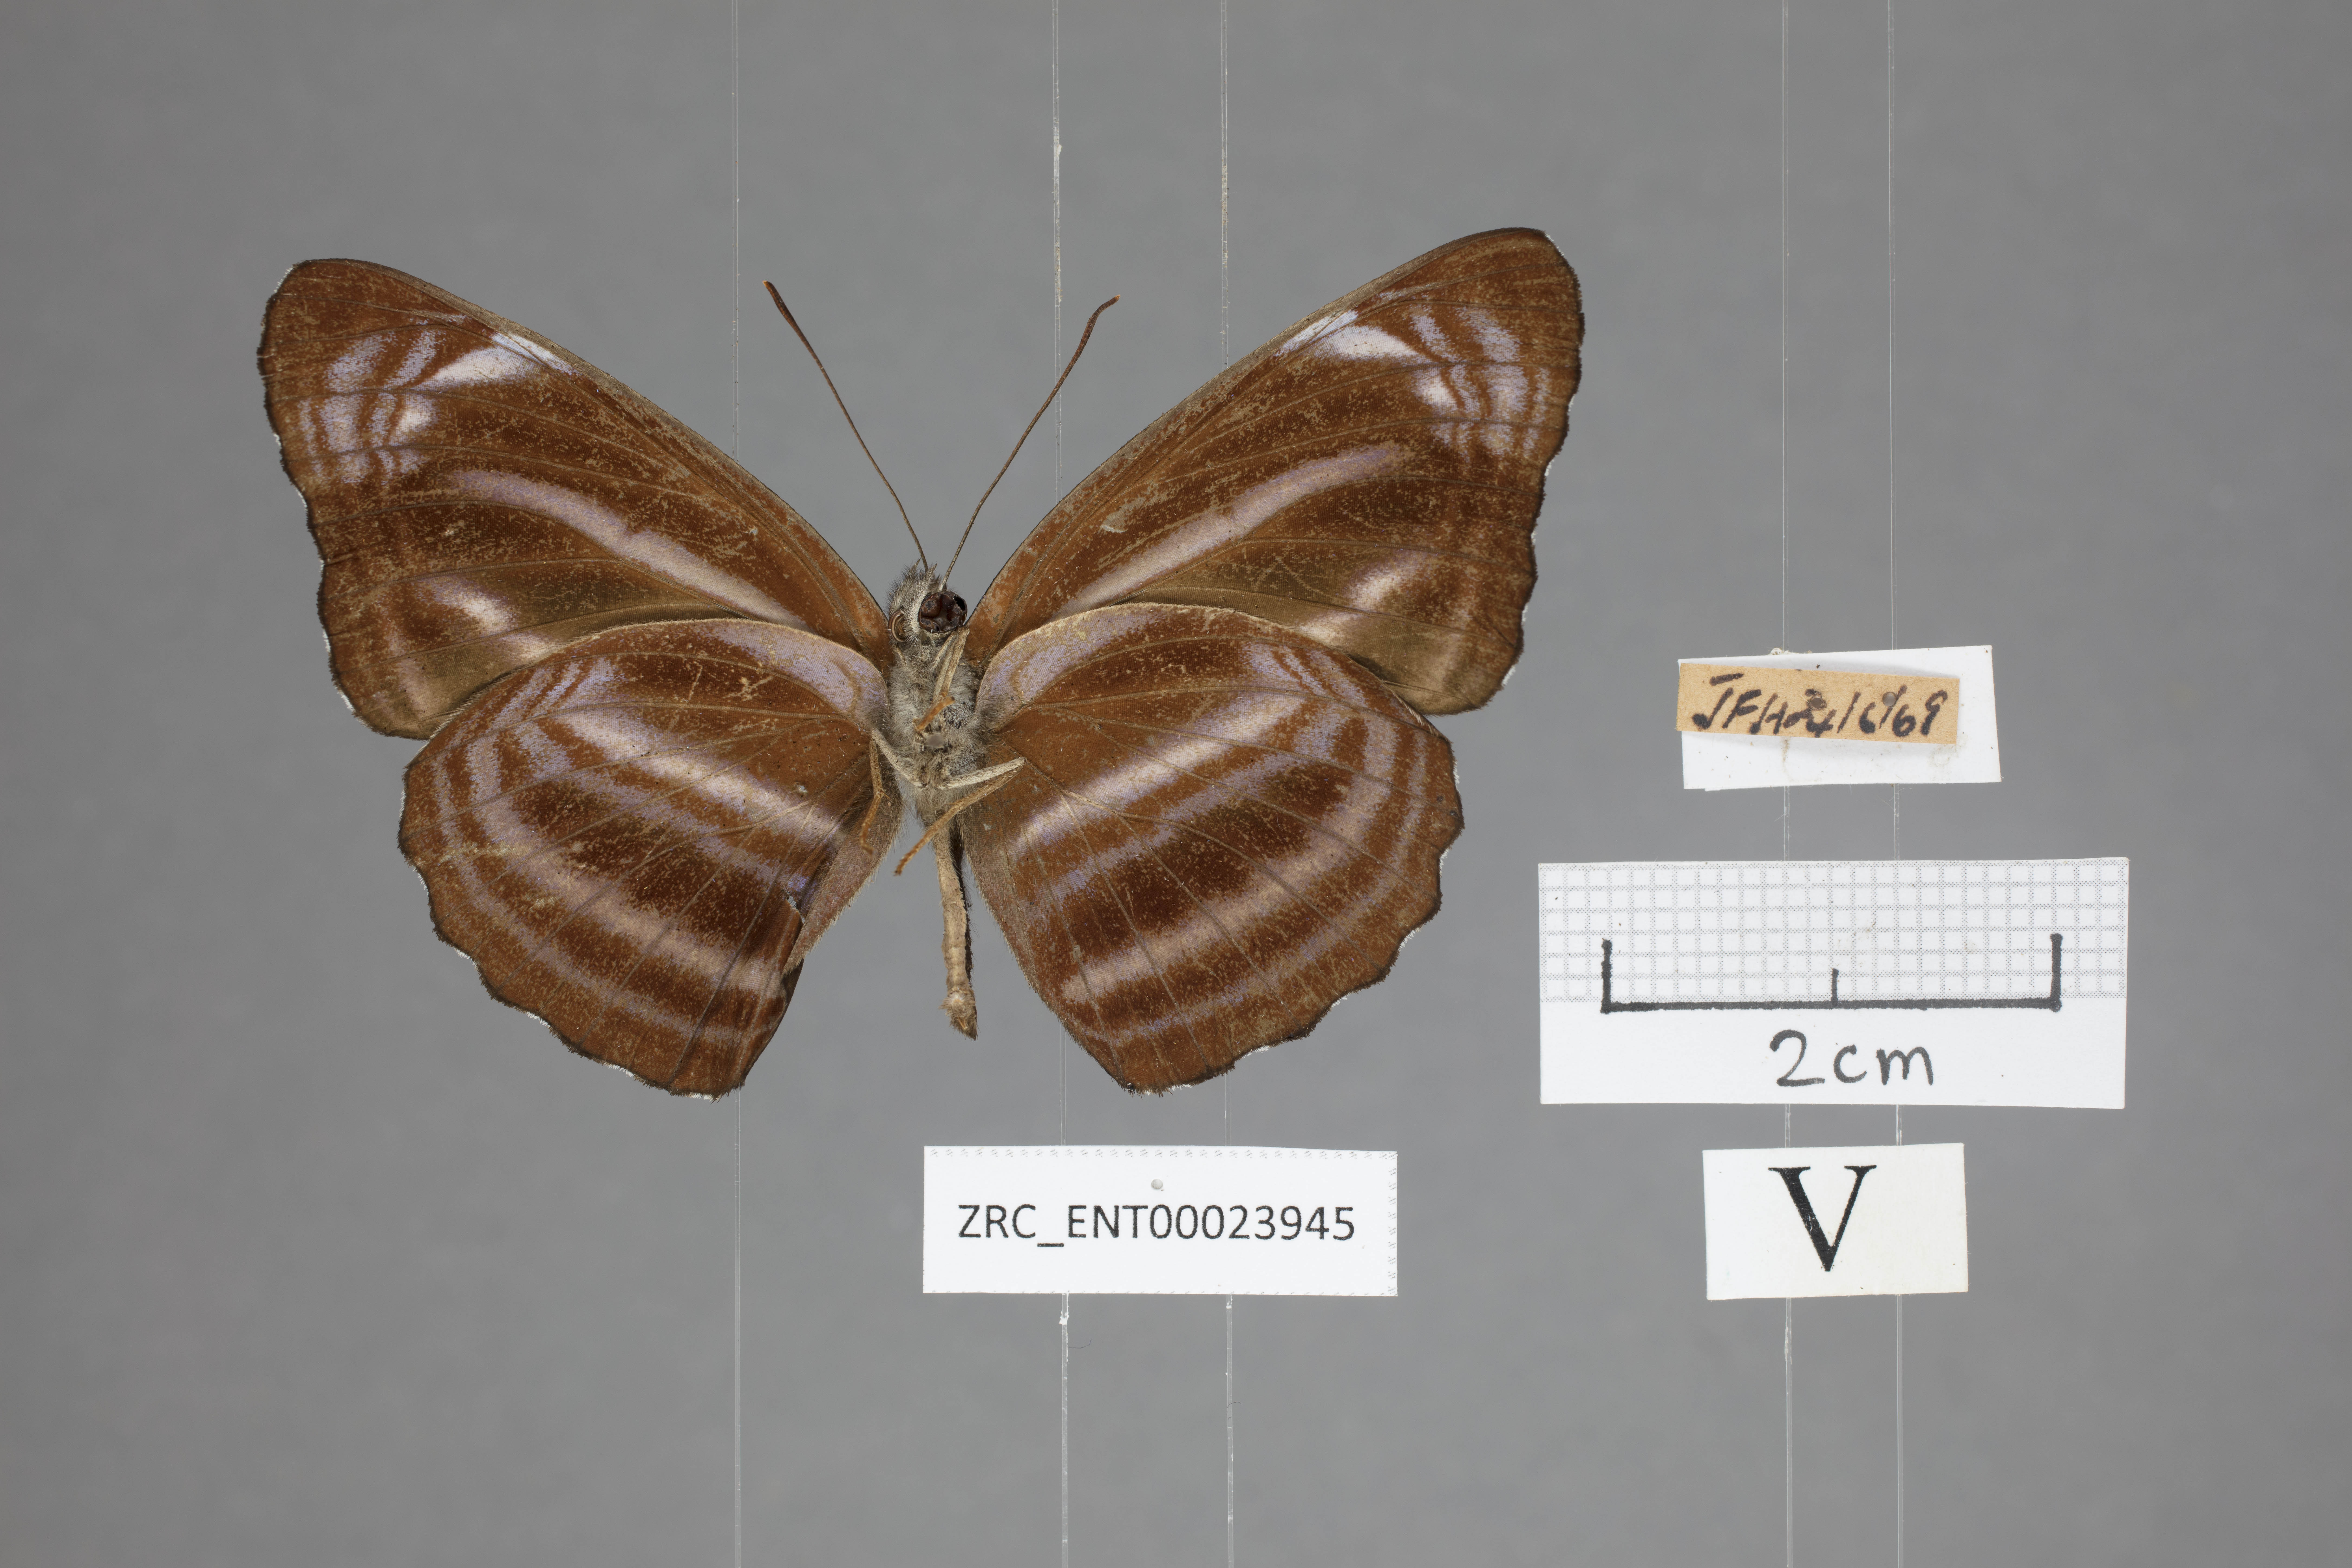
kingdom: Animalia
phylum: Arthropoda
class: Insecta
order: Lepidoptera
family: Nymphalidae
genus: Neptis
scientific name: Neptis anjana
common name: Rich sailer
